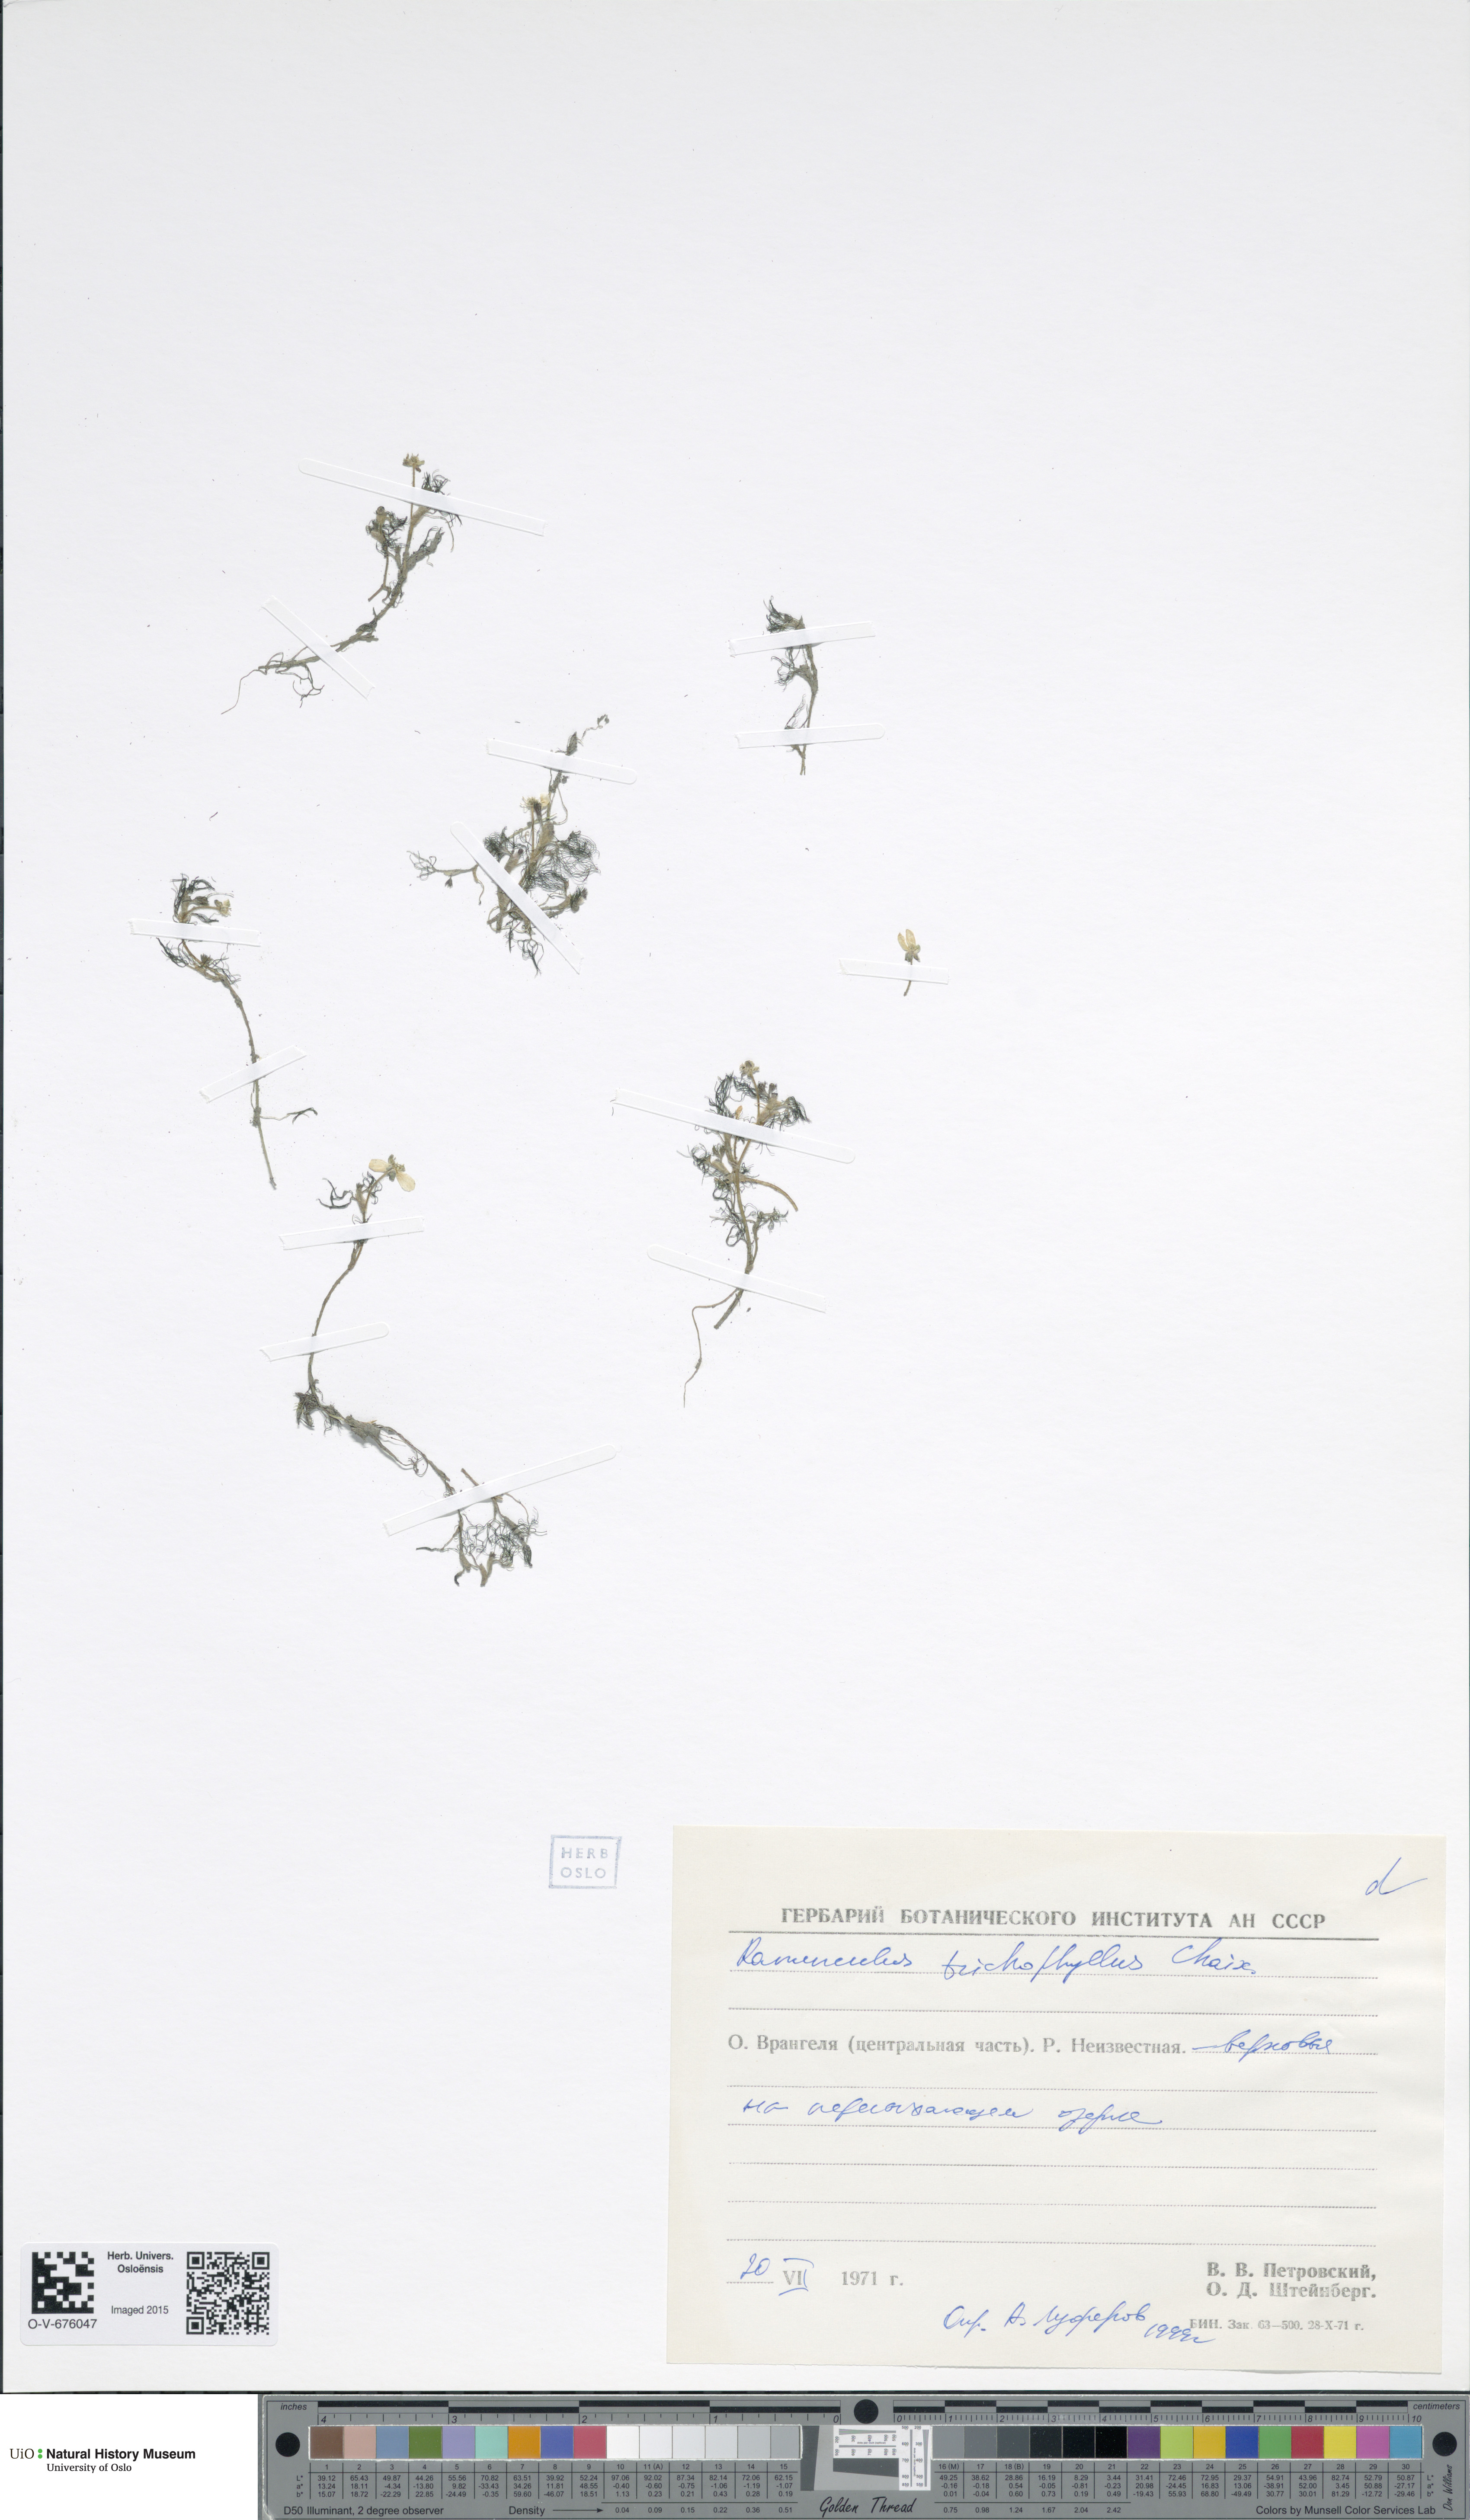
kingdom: Plantae
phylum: Tracheophyta
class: Magnoliopsida
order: Ranunculales
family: Ranunculaceae
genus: Ranunculus
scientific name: Ranunculus trichophyllus
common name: Thread-leaved water-crowfoot
